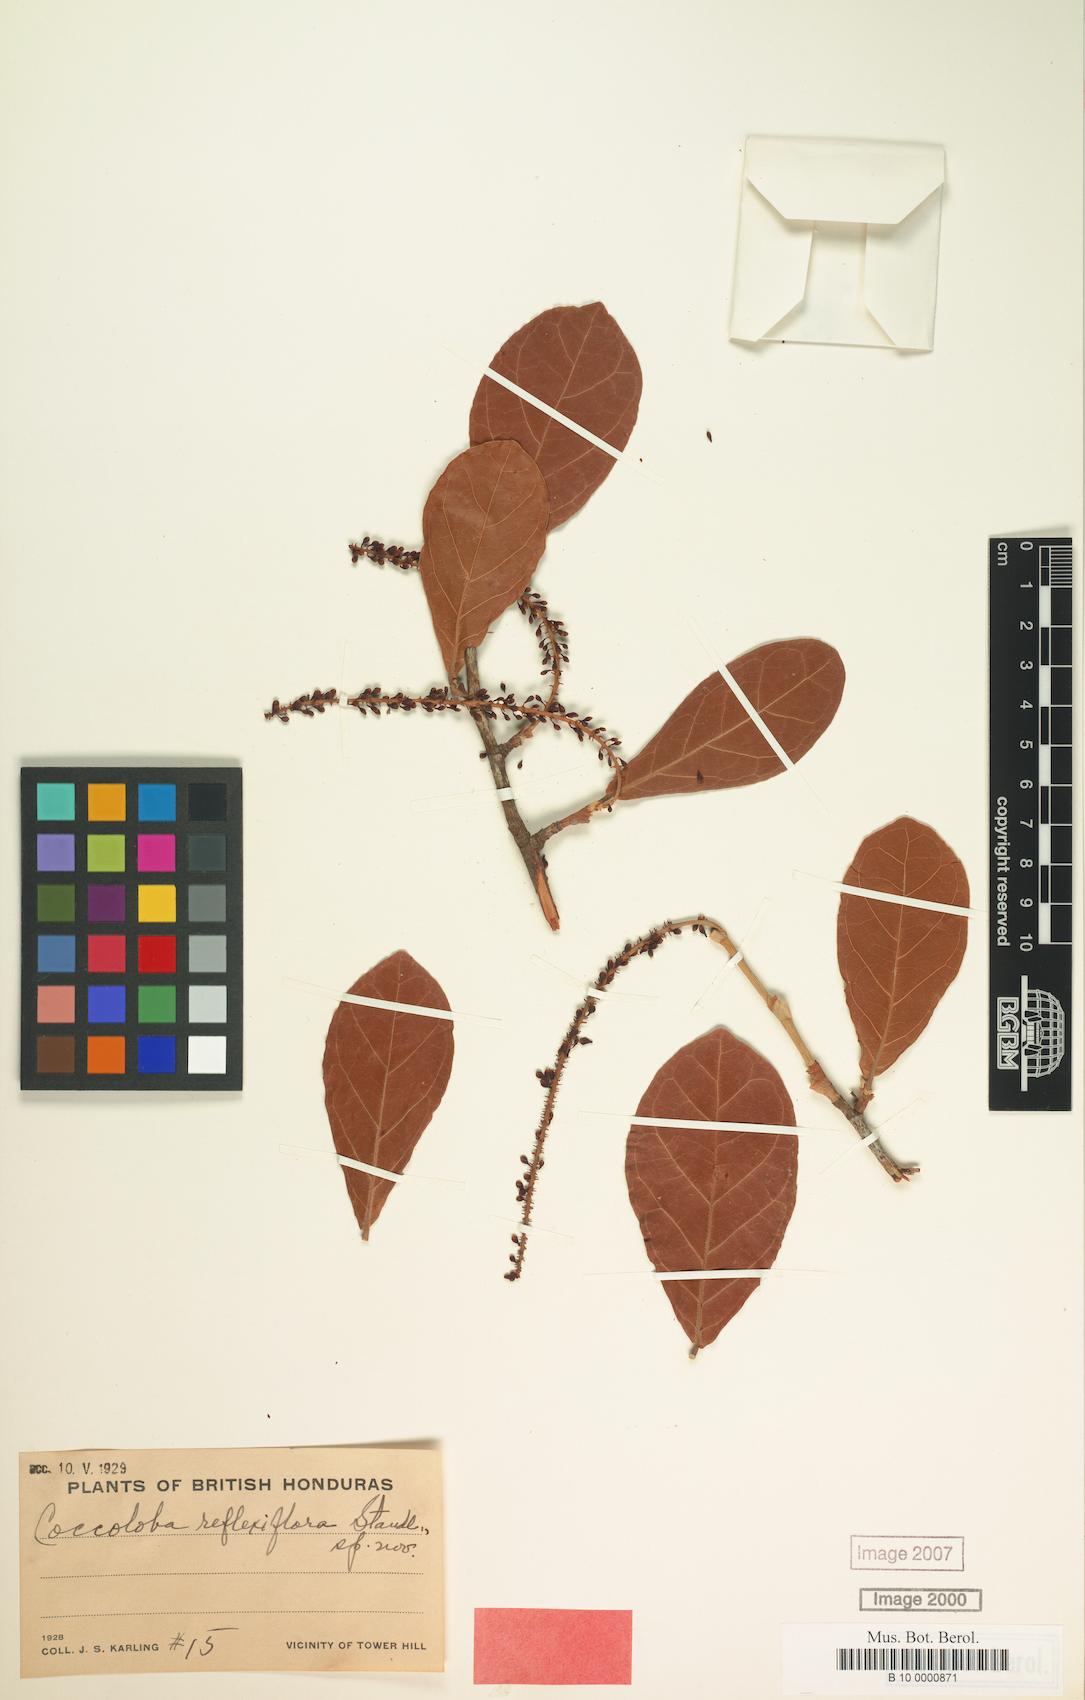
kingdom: Plantae
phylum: Tracheophyta
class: Magnoliopsida
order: Caryophyllales
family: Polygonaceae
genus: Coccoloba
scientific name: Coccoloba reflexiflora
